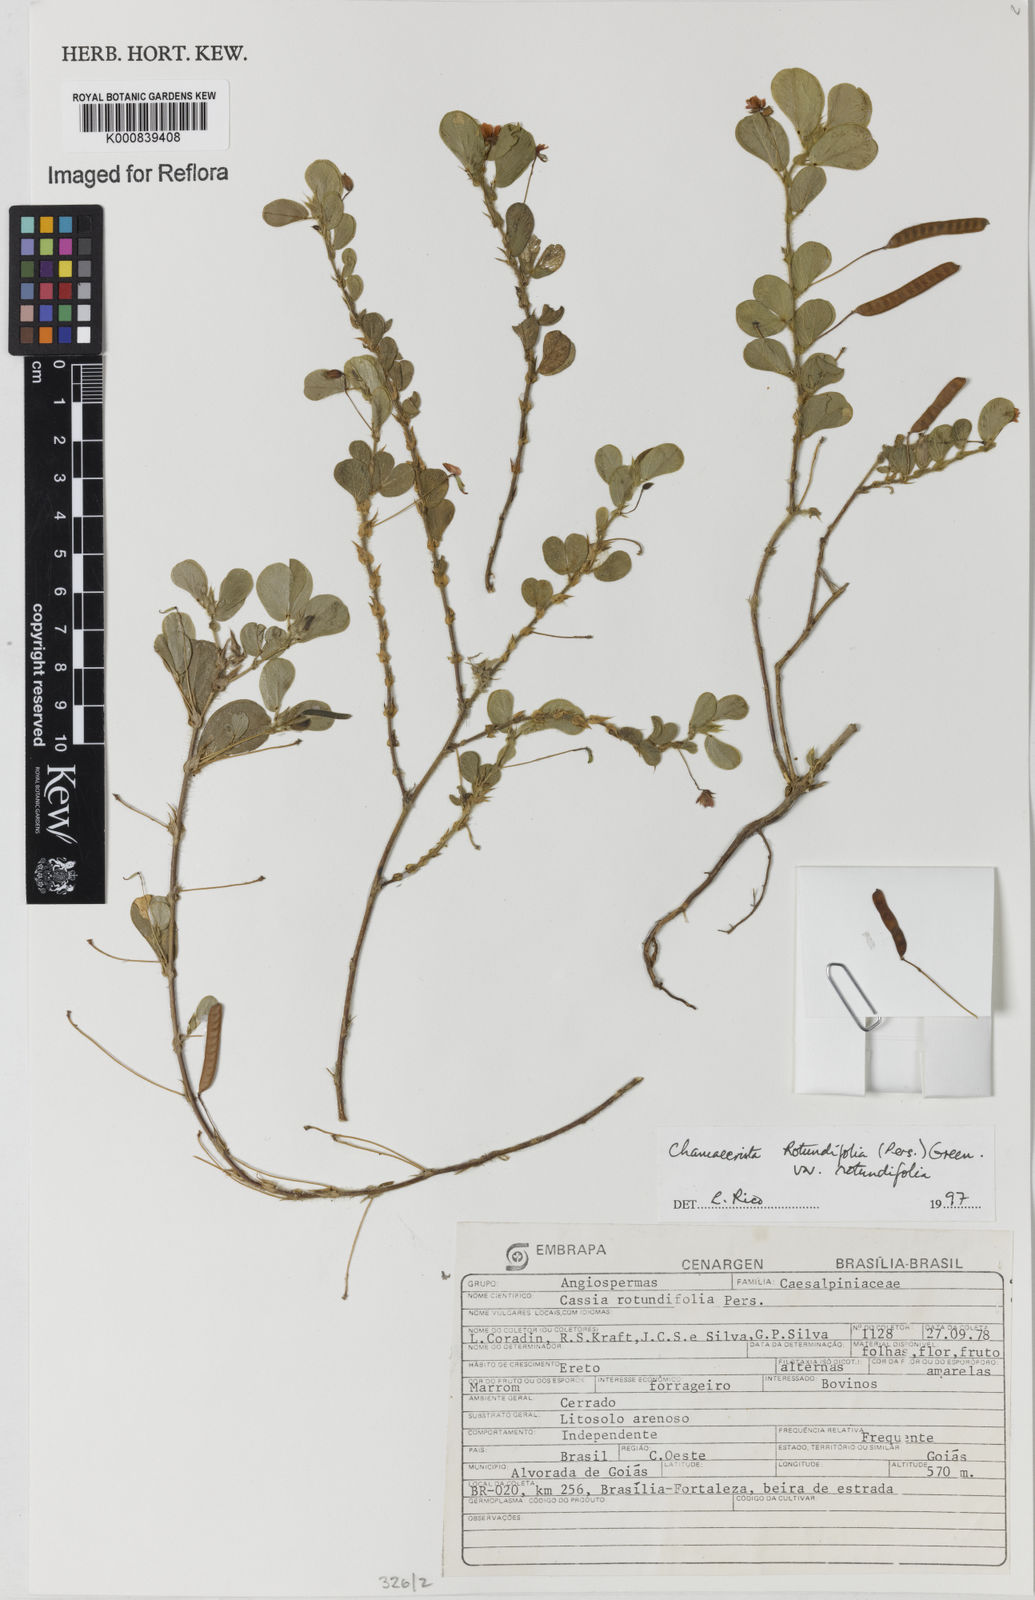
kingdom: Plantae
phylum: Tracheophyta
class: Magnoliopsida
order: Fabales
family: Fabaceae
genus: Chamaecrista
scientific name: Chamaecrista rotundifolia
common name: Round-leaf cassia
